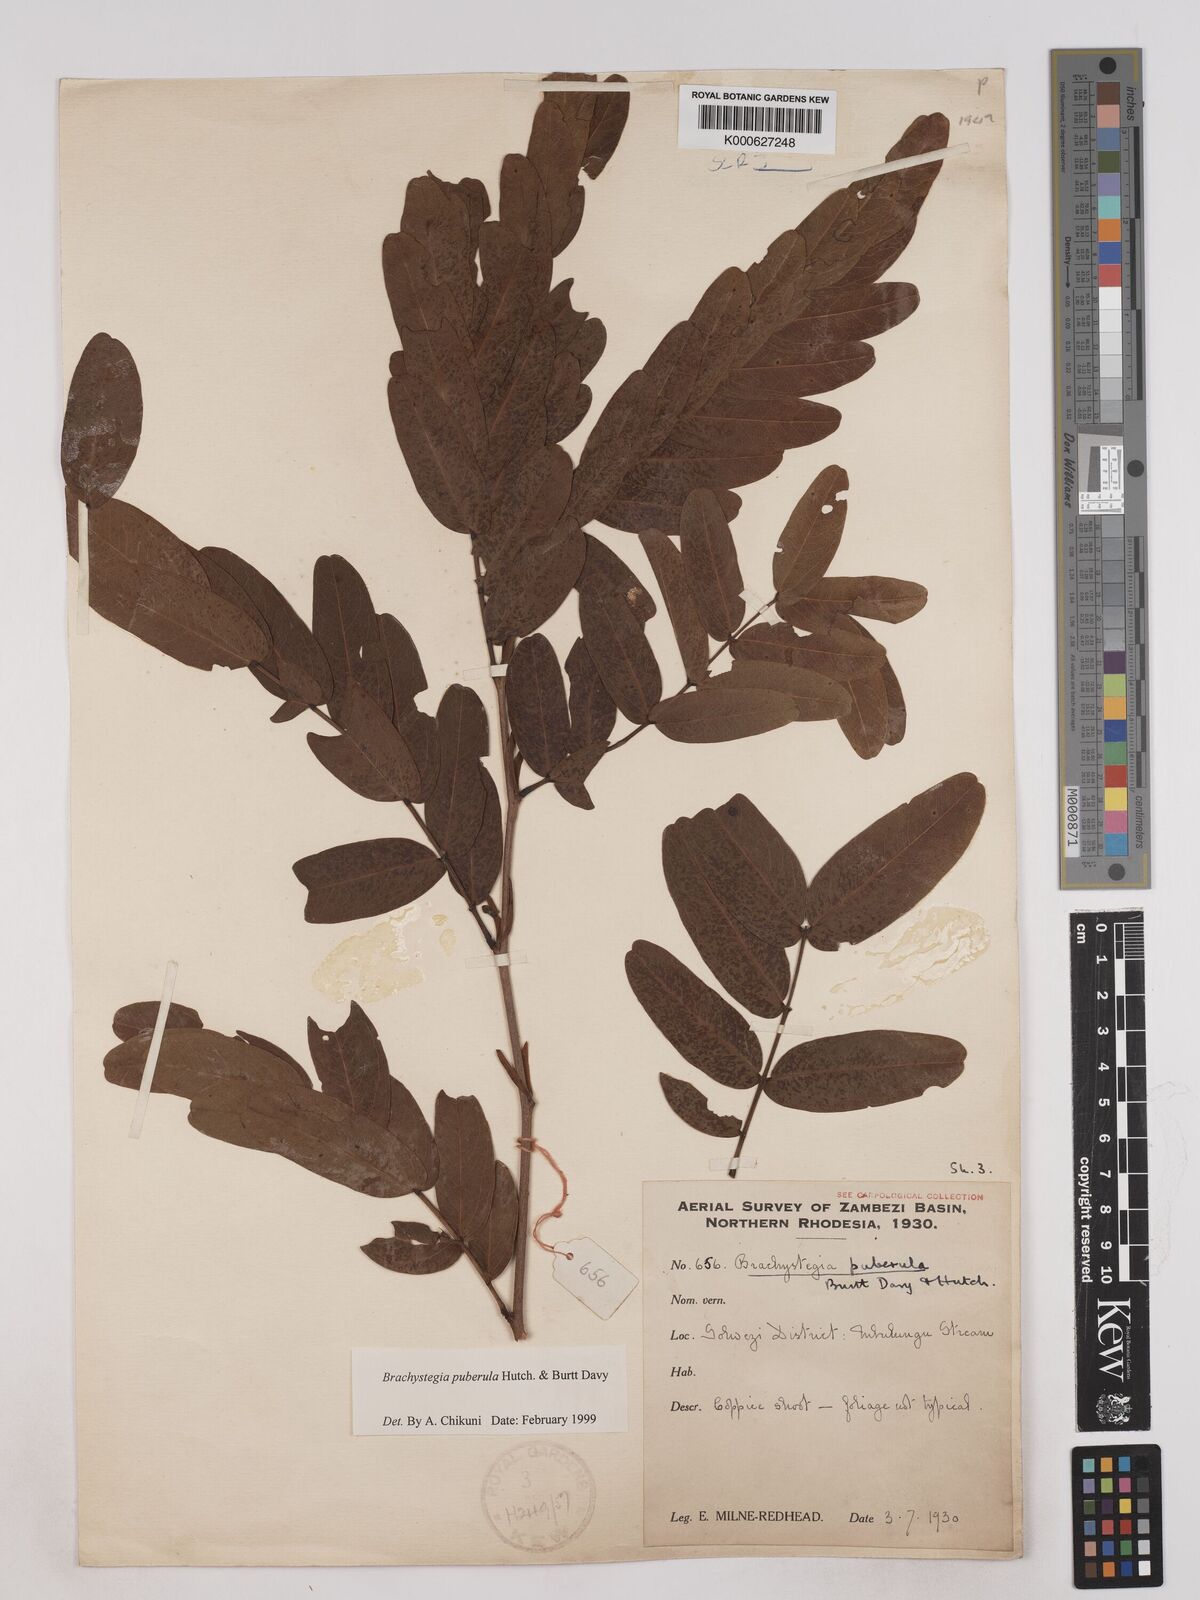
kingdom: Plantae
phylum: Tracheophyta
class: Magnoliopsida
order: Fabales
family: Fabaceae
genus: Brachystegia
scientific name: Brachystegia puberula
